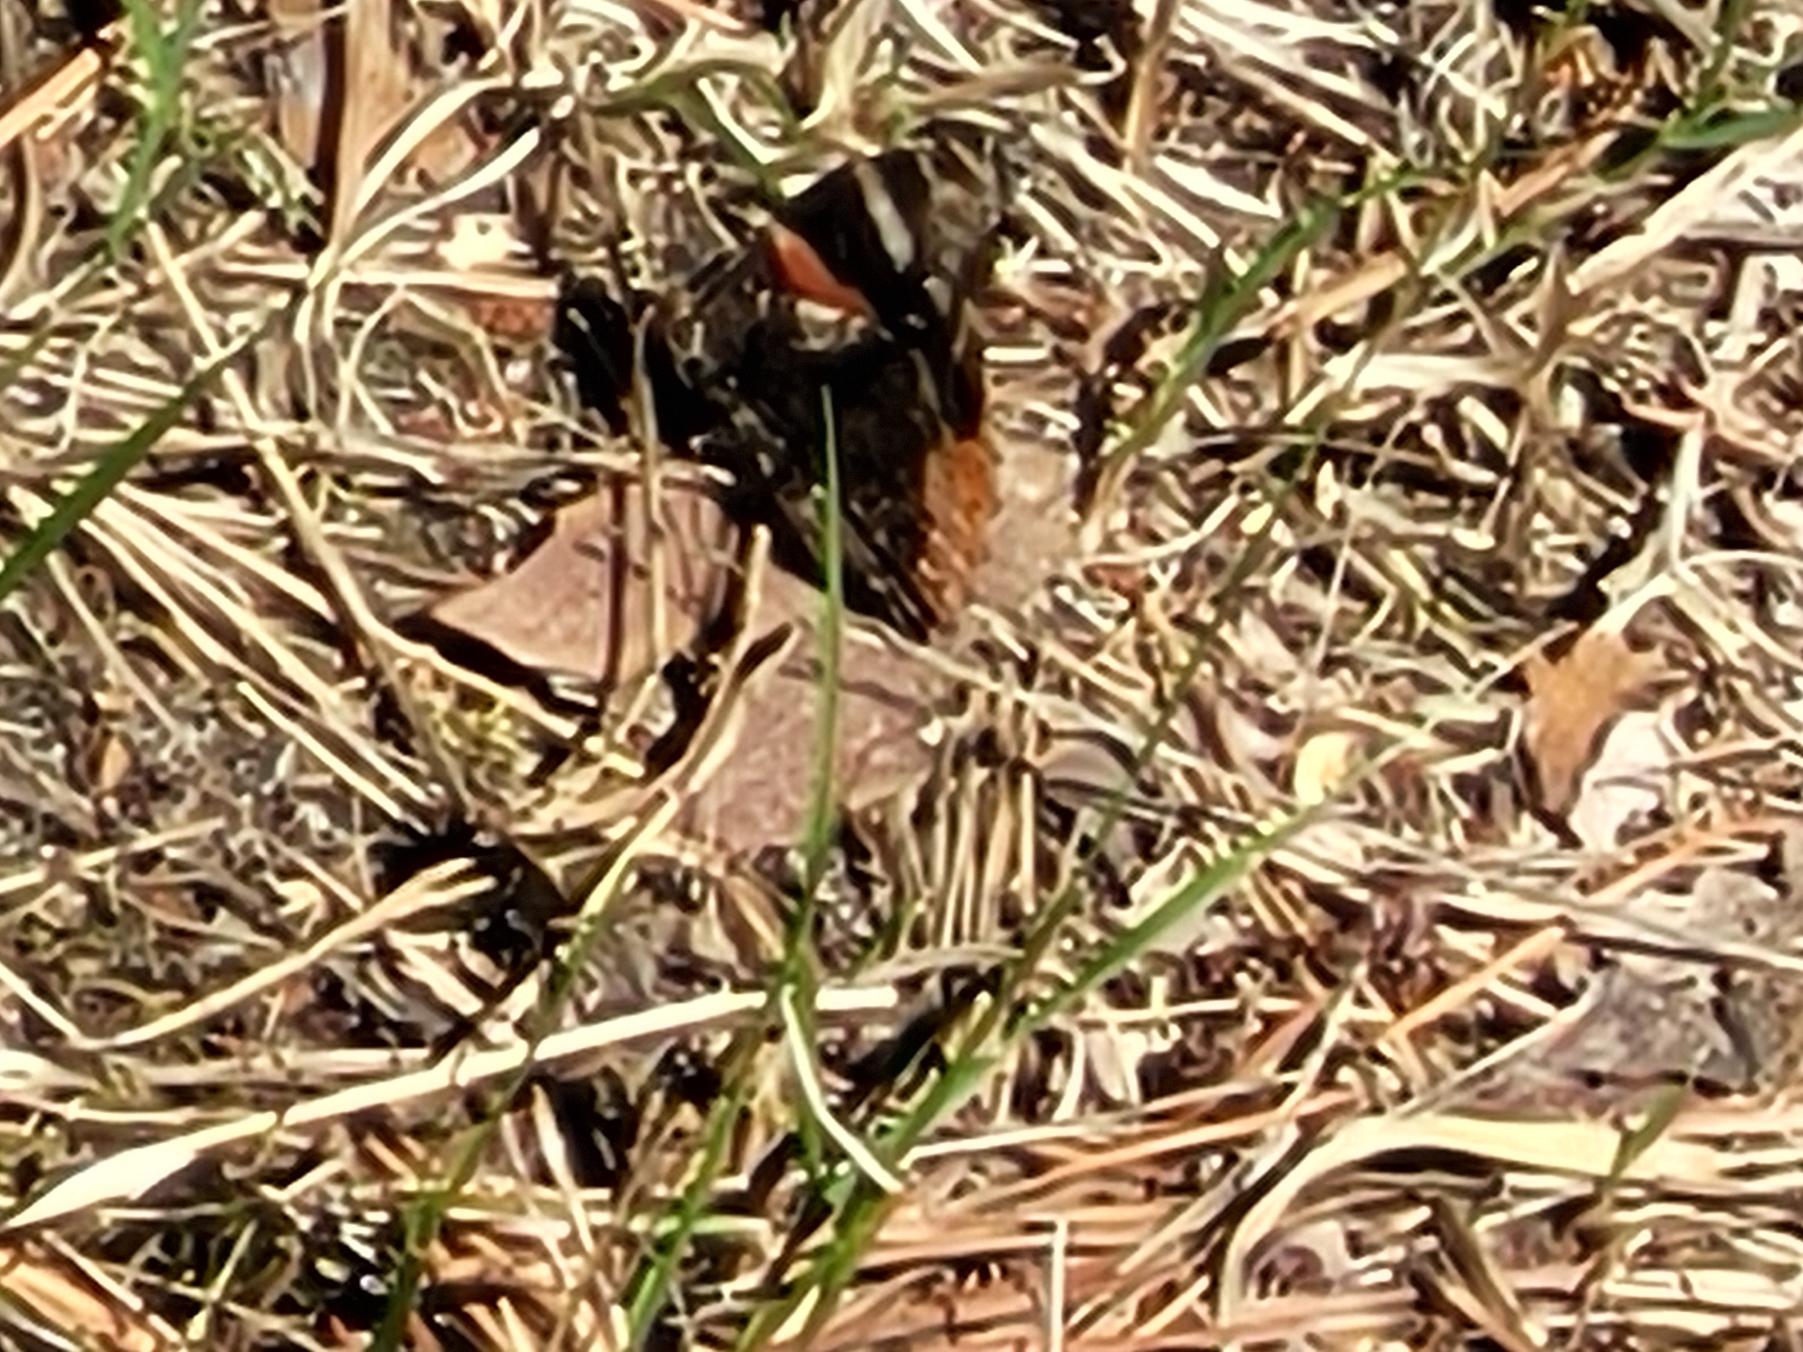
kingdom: Animalia
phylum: Arthropoda
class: Insecta
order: Lepidoptera
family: Nymphalidae
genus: Vanessa
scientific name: Vanessa atalanta
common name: Admiral
